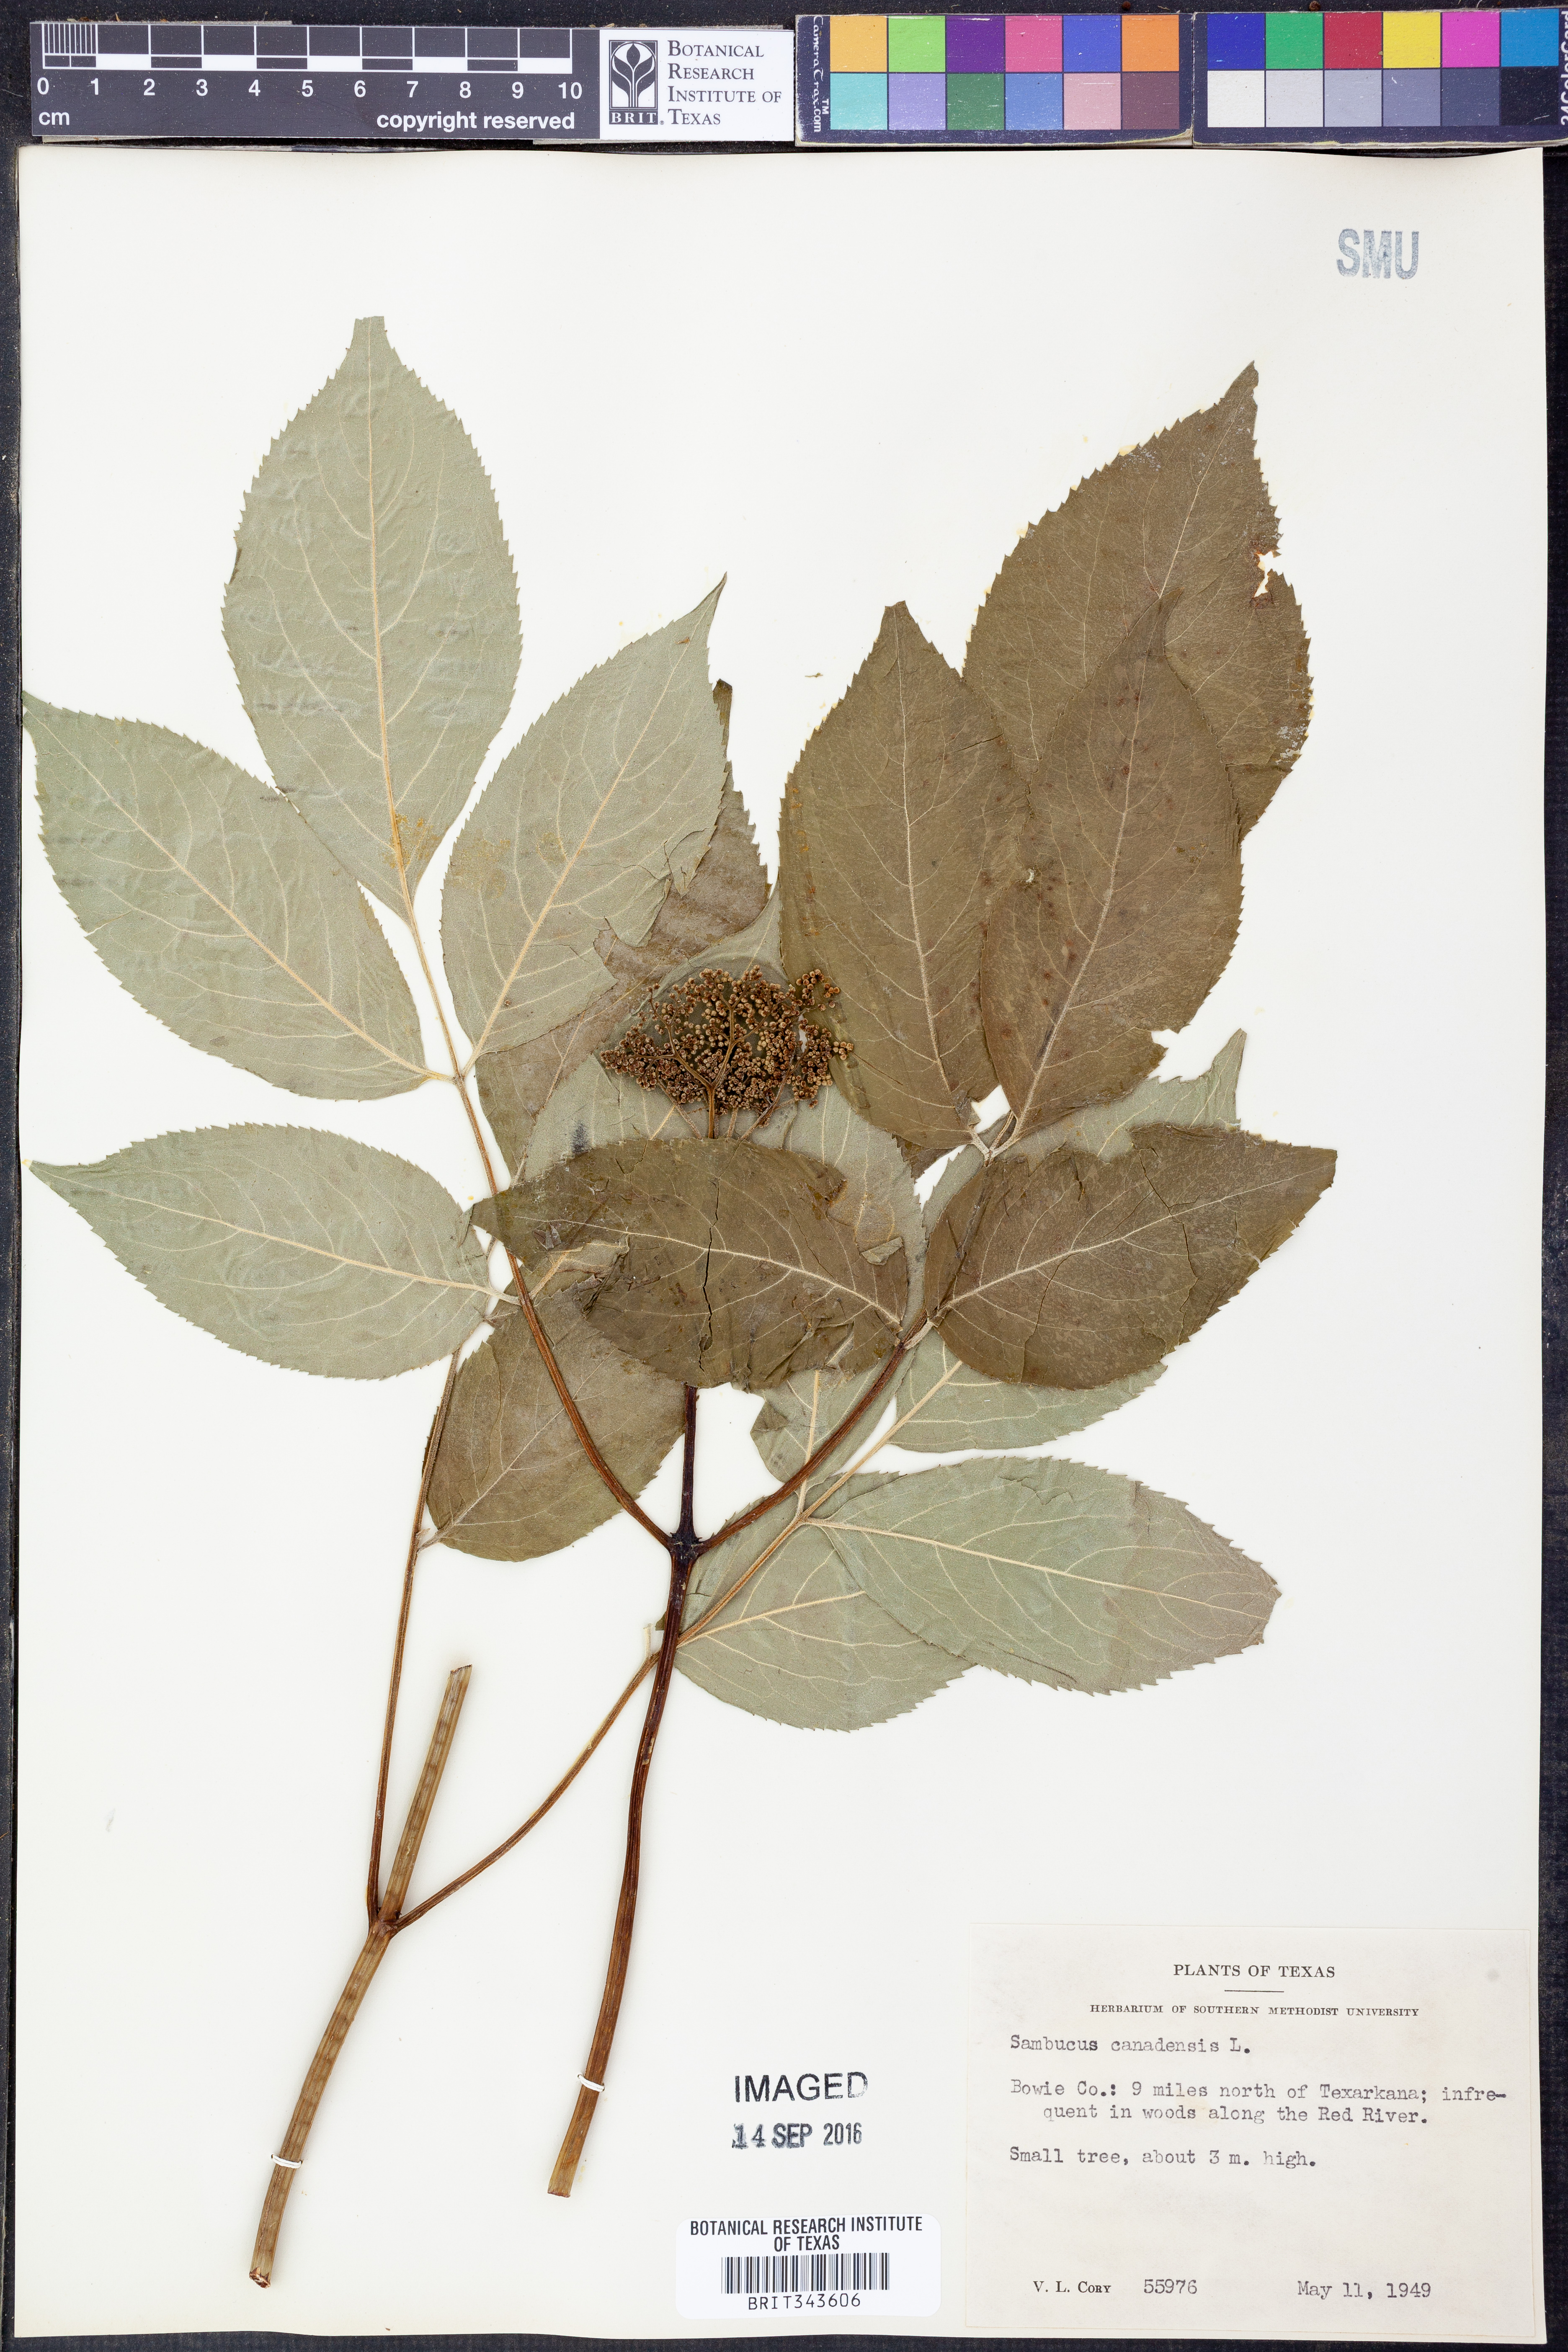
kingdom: Plantae
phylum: Tracheophyta
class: Magnoliopsida
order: Dipsacales
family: Viburnaceae
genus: Sambucus
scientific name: Sambucus canadensis
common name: American elder
